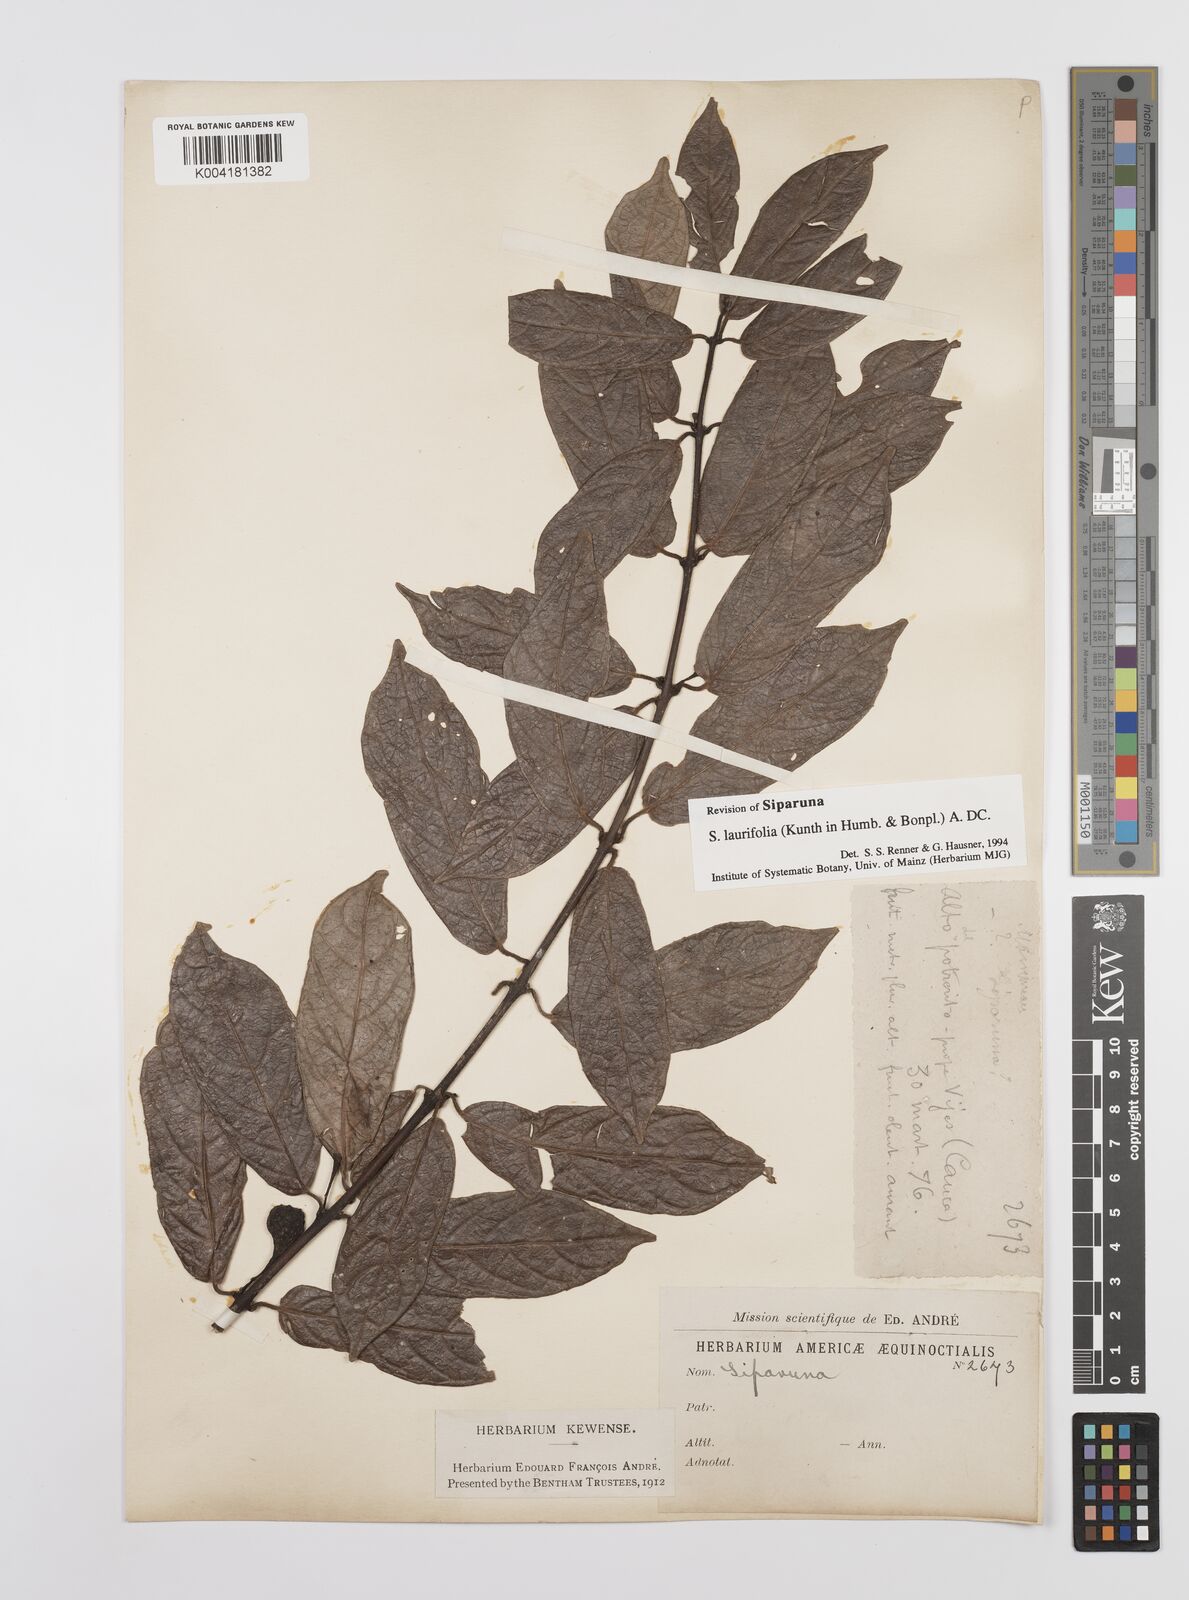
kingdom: Plantae
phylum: Tracheophyta
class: Magnoliopsida
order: Laurales
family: Siparunaceae
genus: Siparuna
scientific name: Siparuna laurifolia
